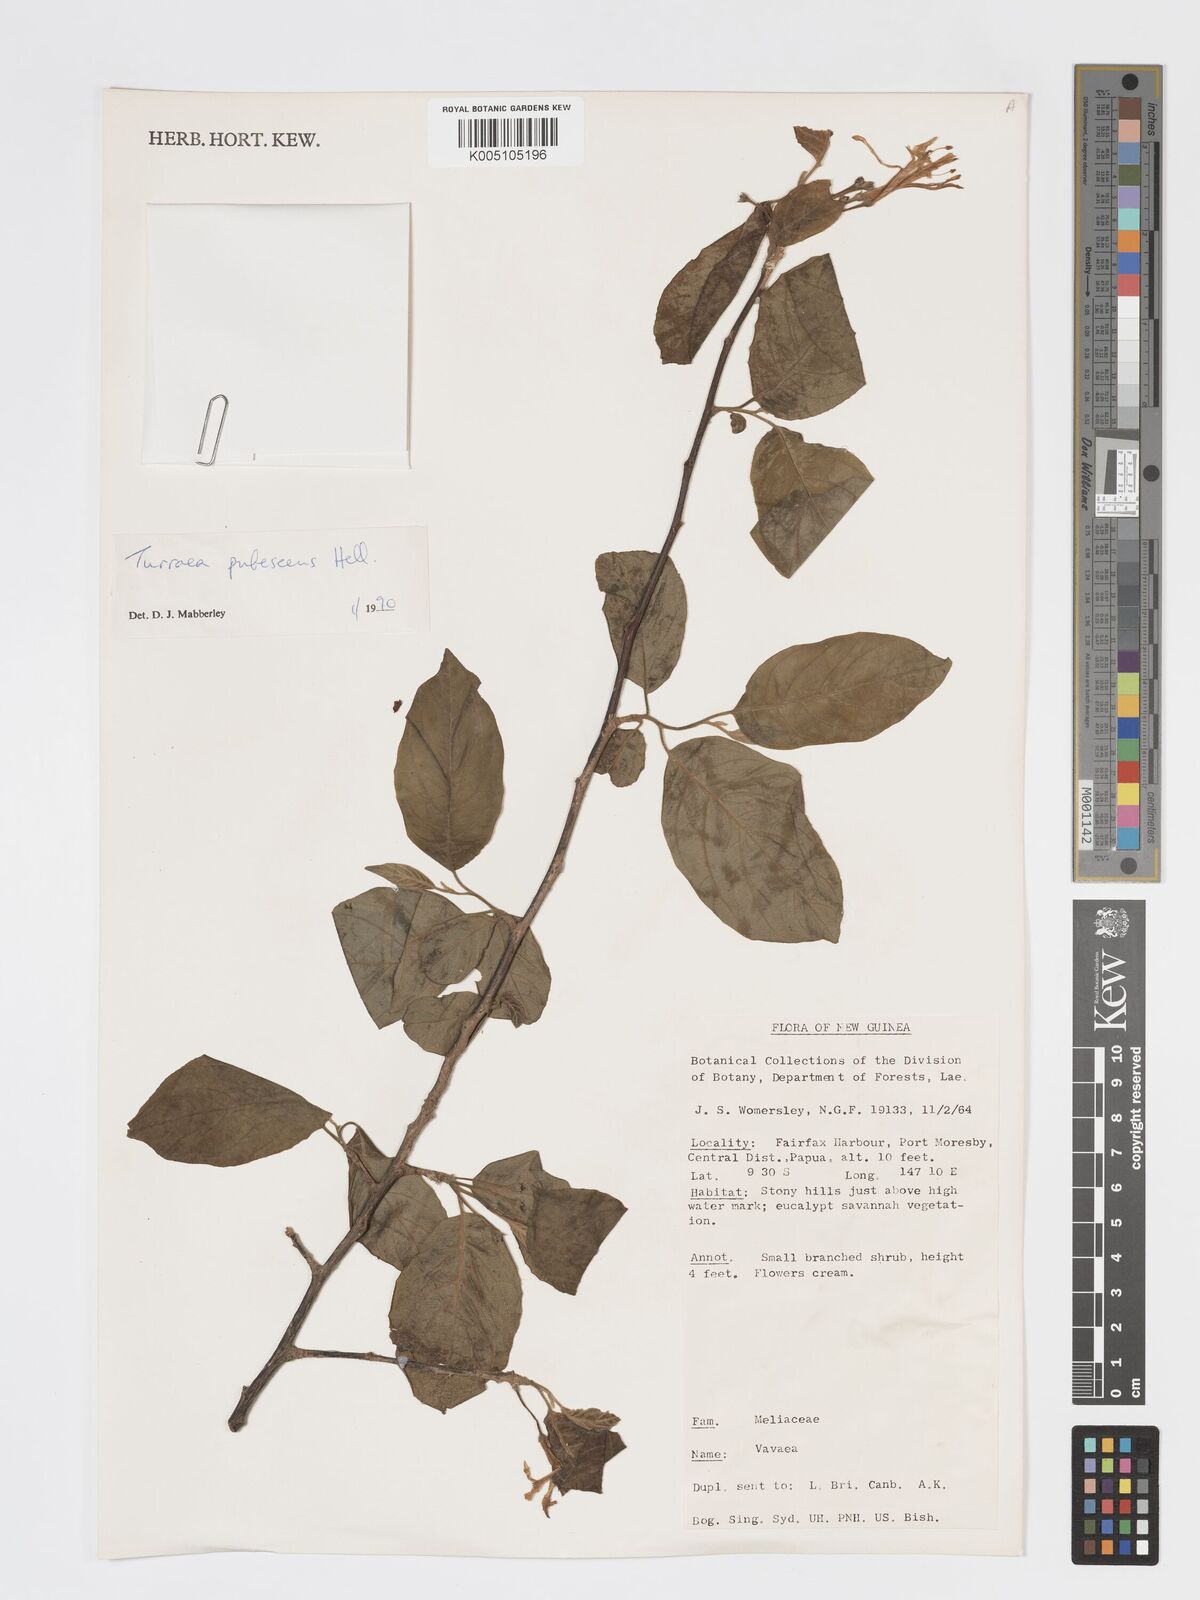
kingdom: Plantae
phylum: Tracheophyta
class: Magnoliopsida
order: Sapindales
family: Meliaceae
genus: Turraea
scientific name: Turraea
